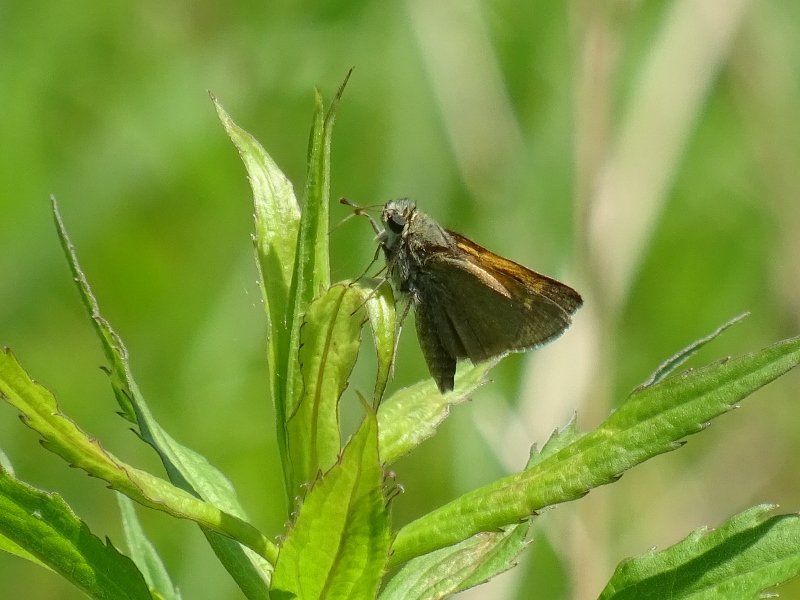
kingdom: Animalia
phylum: Arthropoda
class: Insecta
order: Lepidoptera
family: Hesperiidae
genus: Polites
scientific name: Polites themistocles
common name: Tawny-edged Skipper
